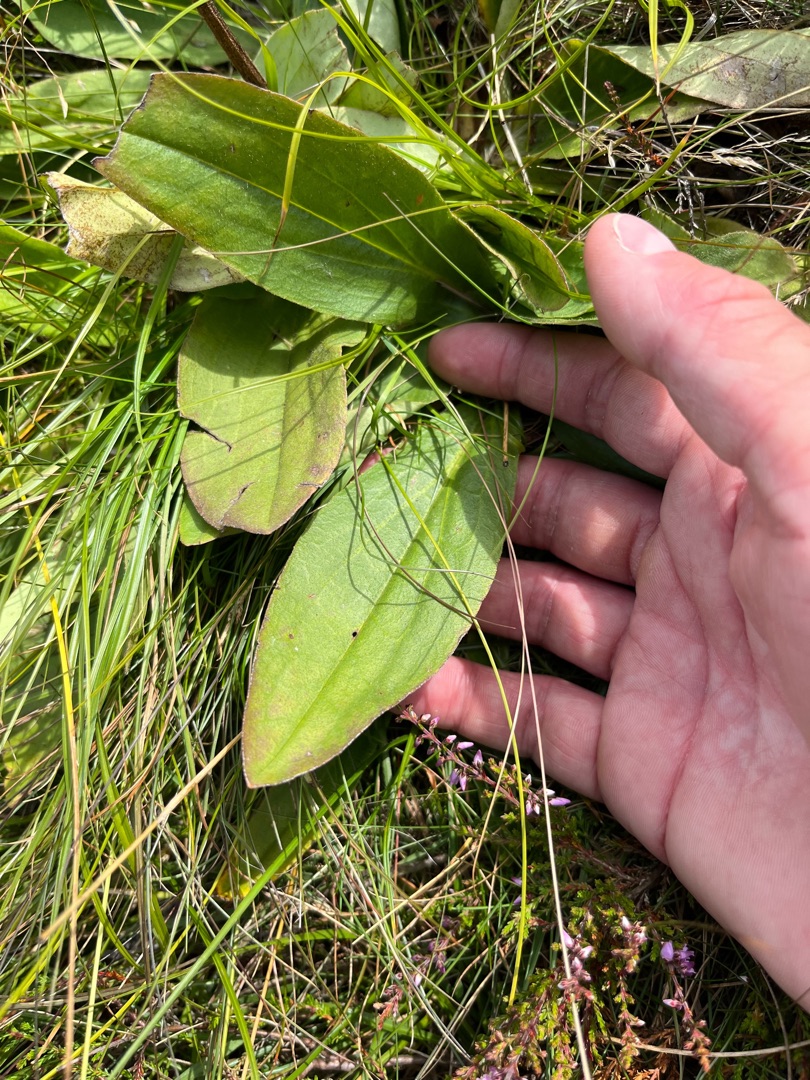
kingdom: Plantae
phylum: Tracheophyta
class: Magnoliopsida
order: Asterales
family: Asteraceae
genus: Arnica
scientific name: Arnica montana
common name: Guldblomme
